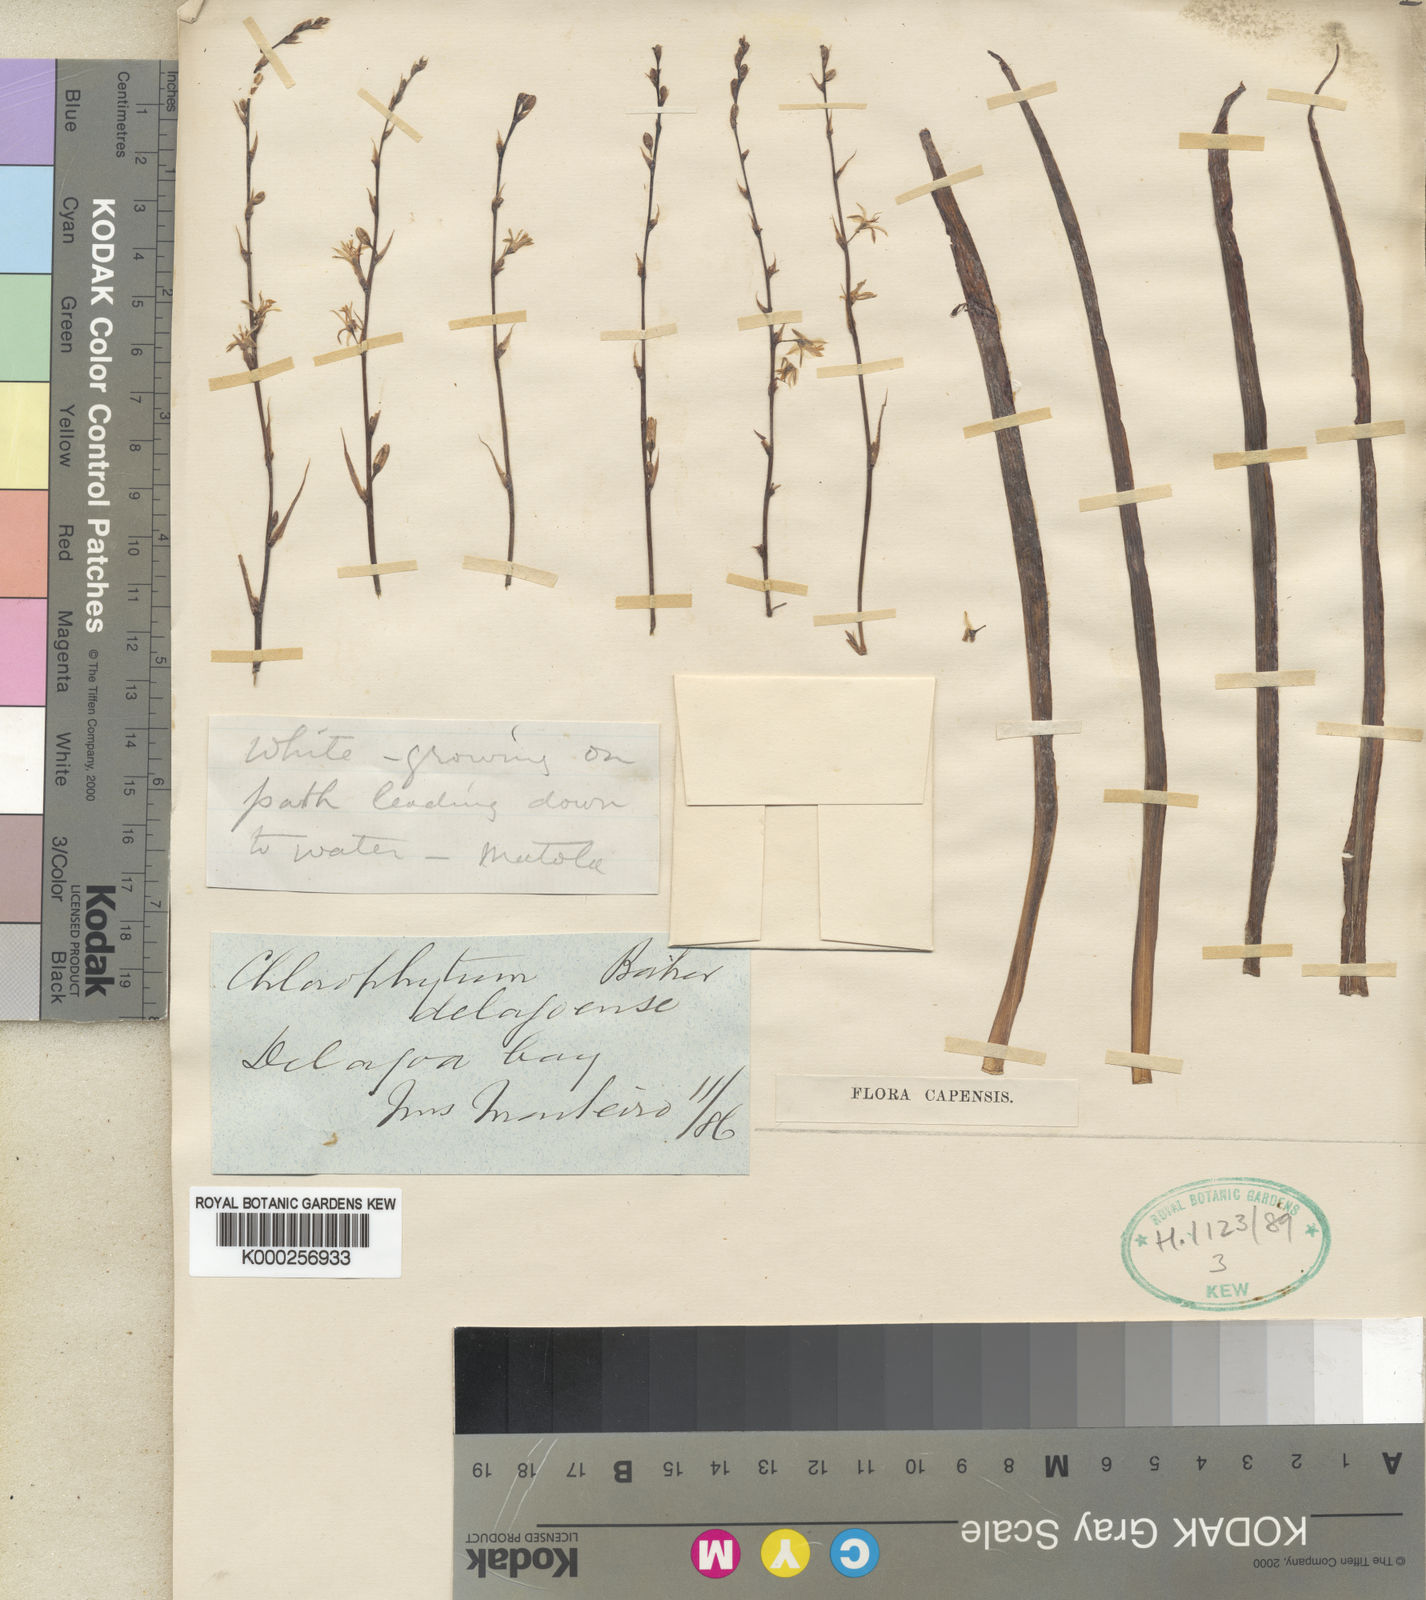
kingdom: Plantae
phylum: Tracheophyta
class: Liliopsida
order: Asparagales
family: Asparagaceae
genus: Chlorophytum
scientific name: Chlorophytum comosum
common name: Spider plant
